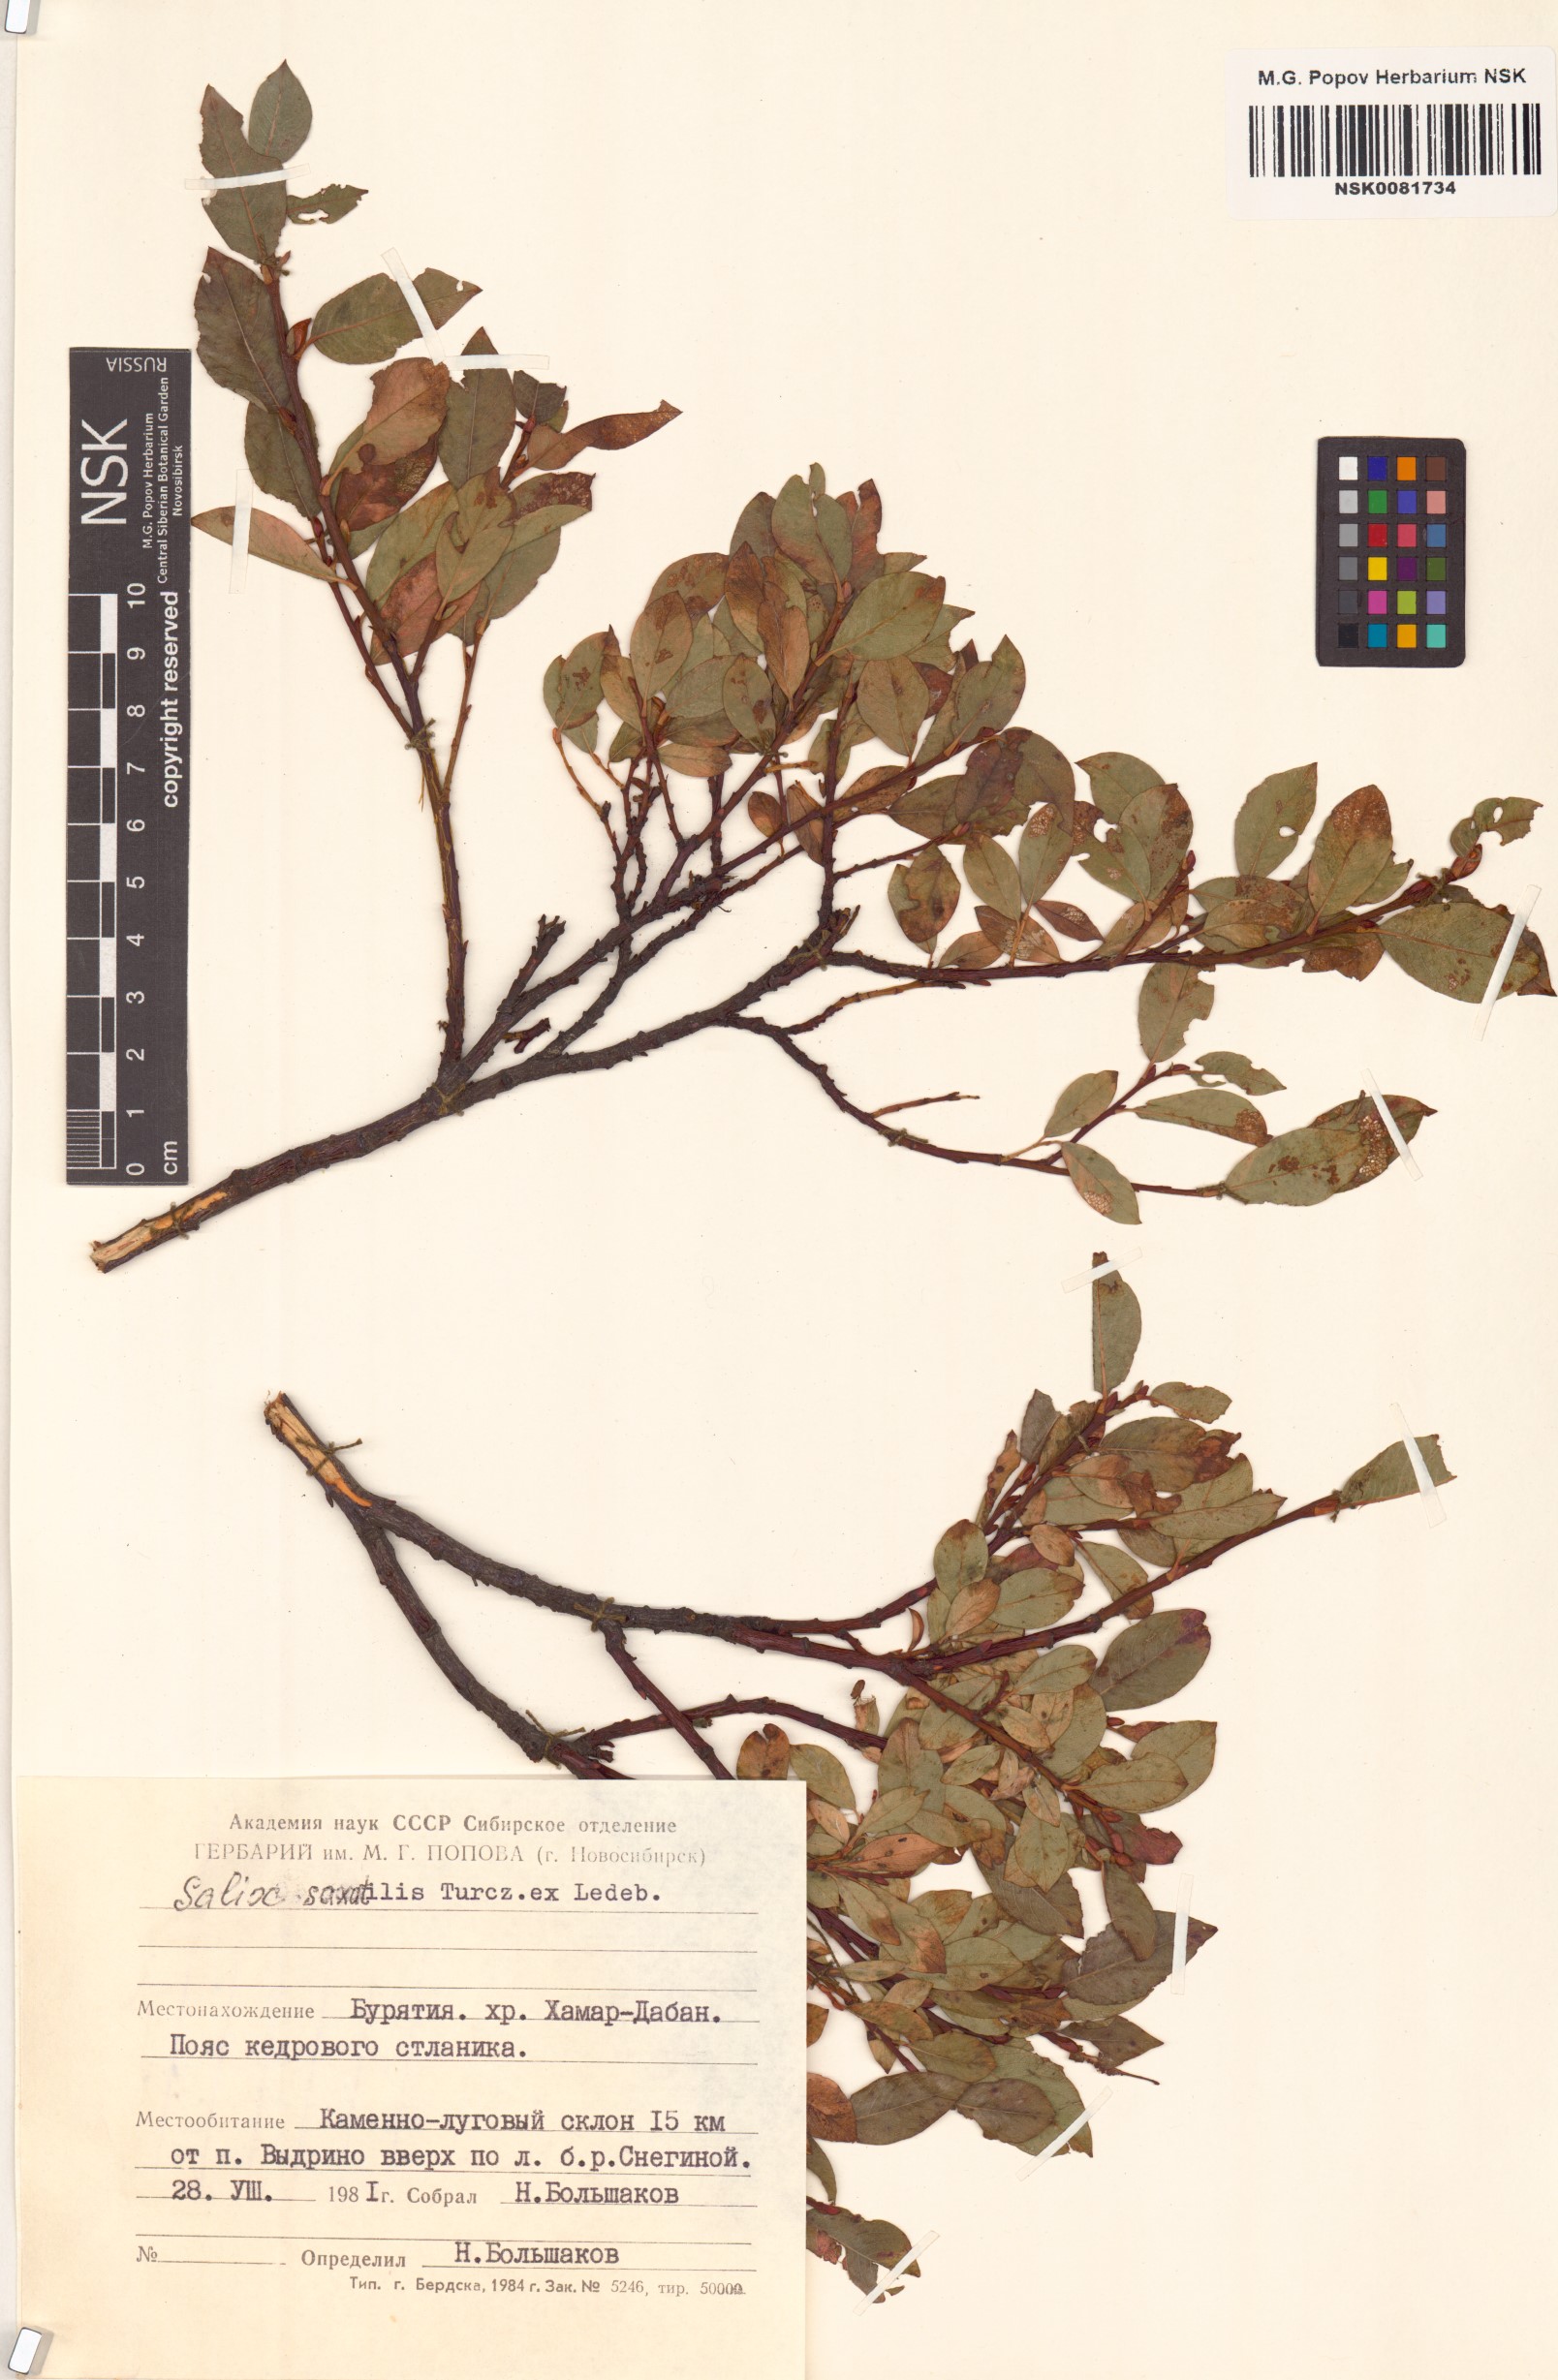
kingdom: Plantae
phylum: Tracheophyta
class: Magnoliopsida
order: Malpighiales
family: Salicaceae
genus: Salix
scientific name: Salix saxatilis
